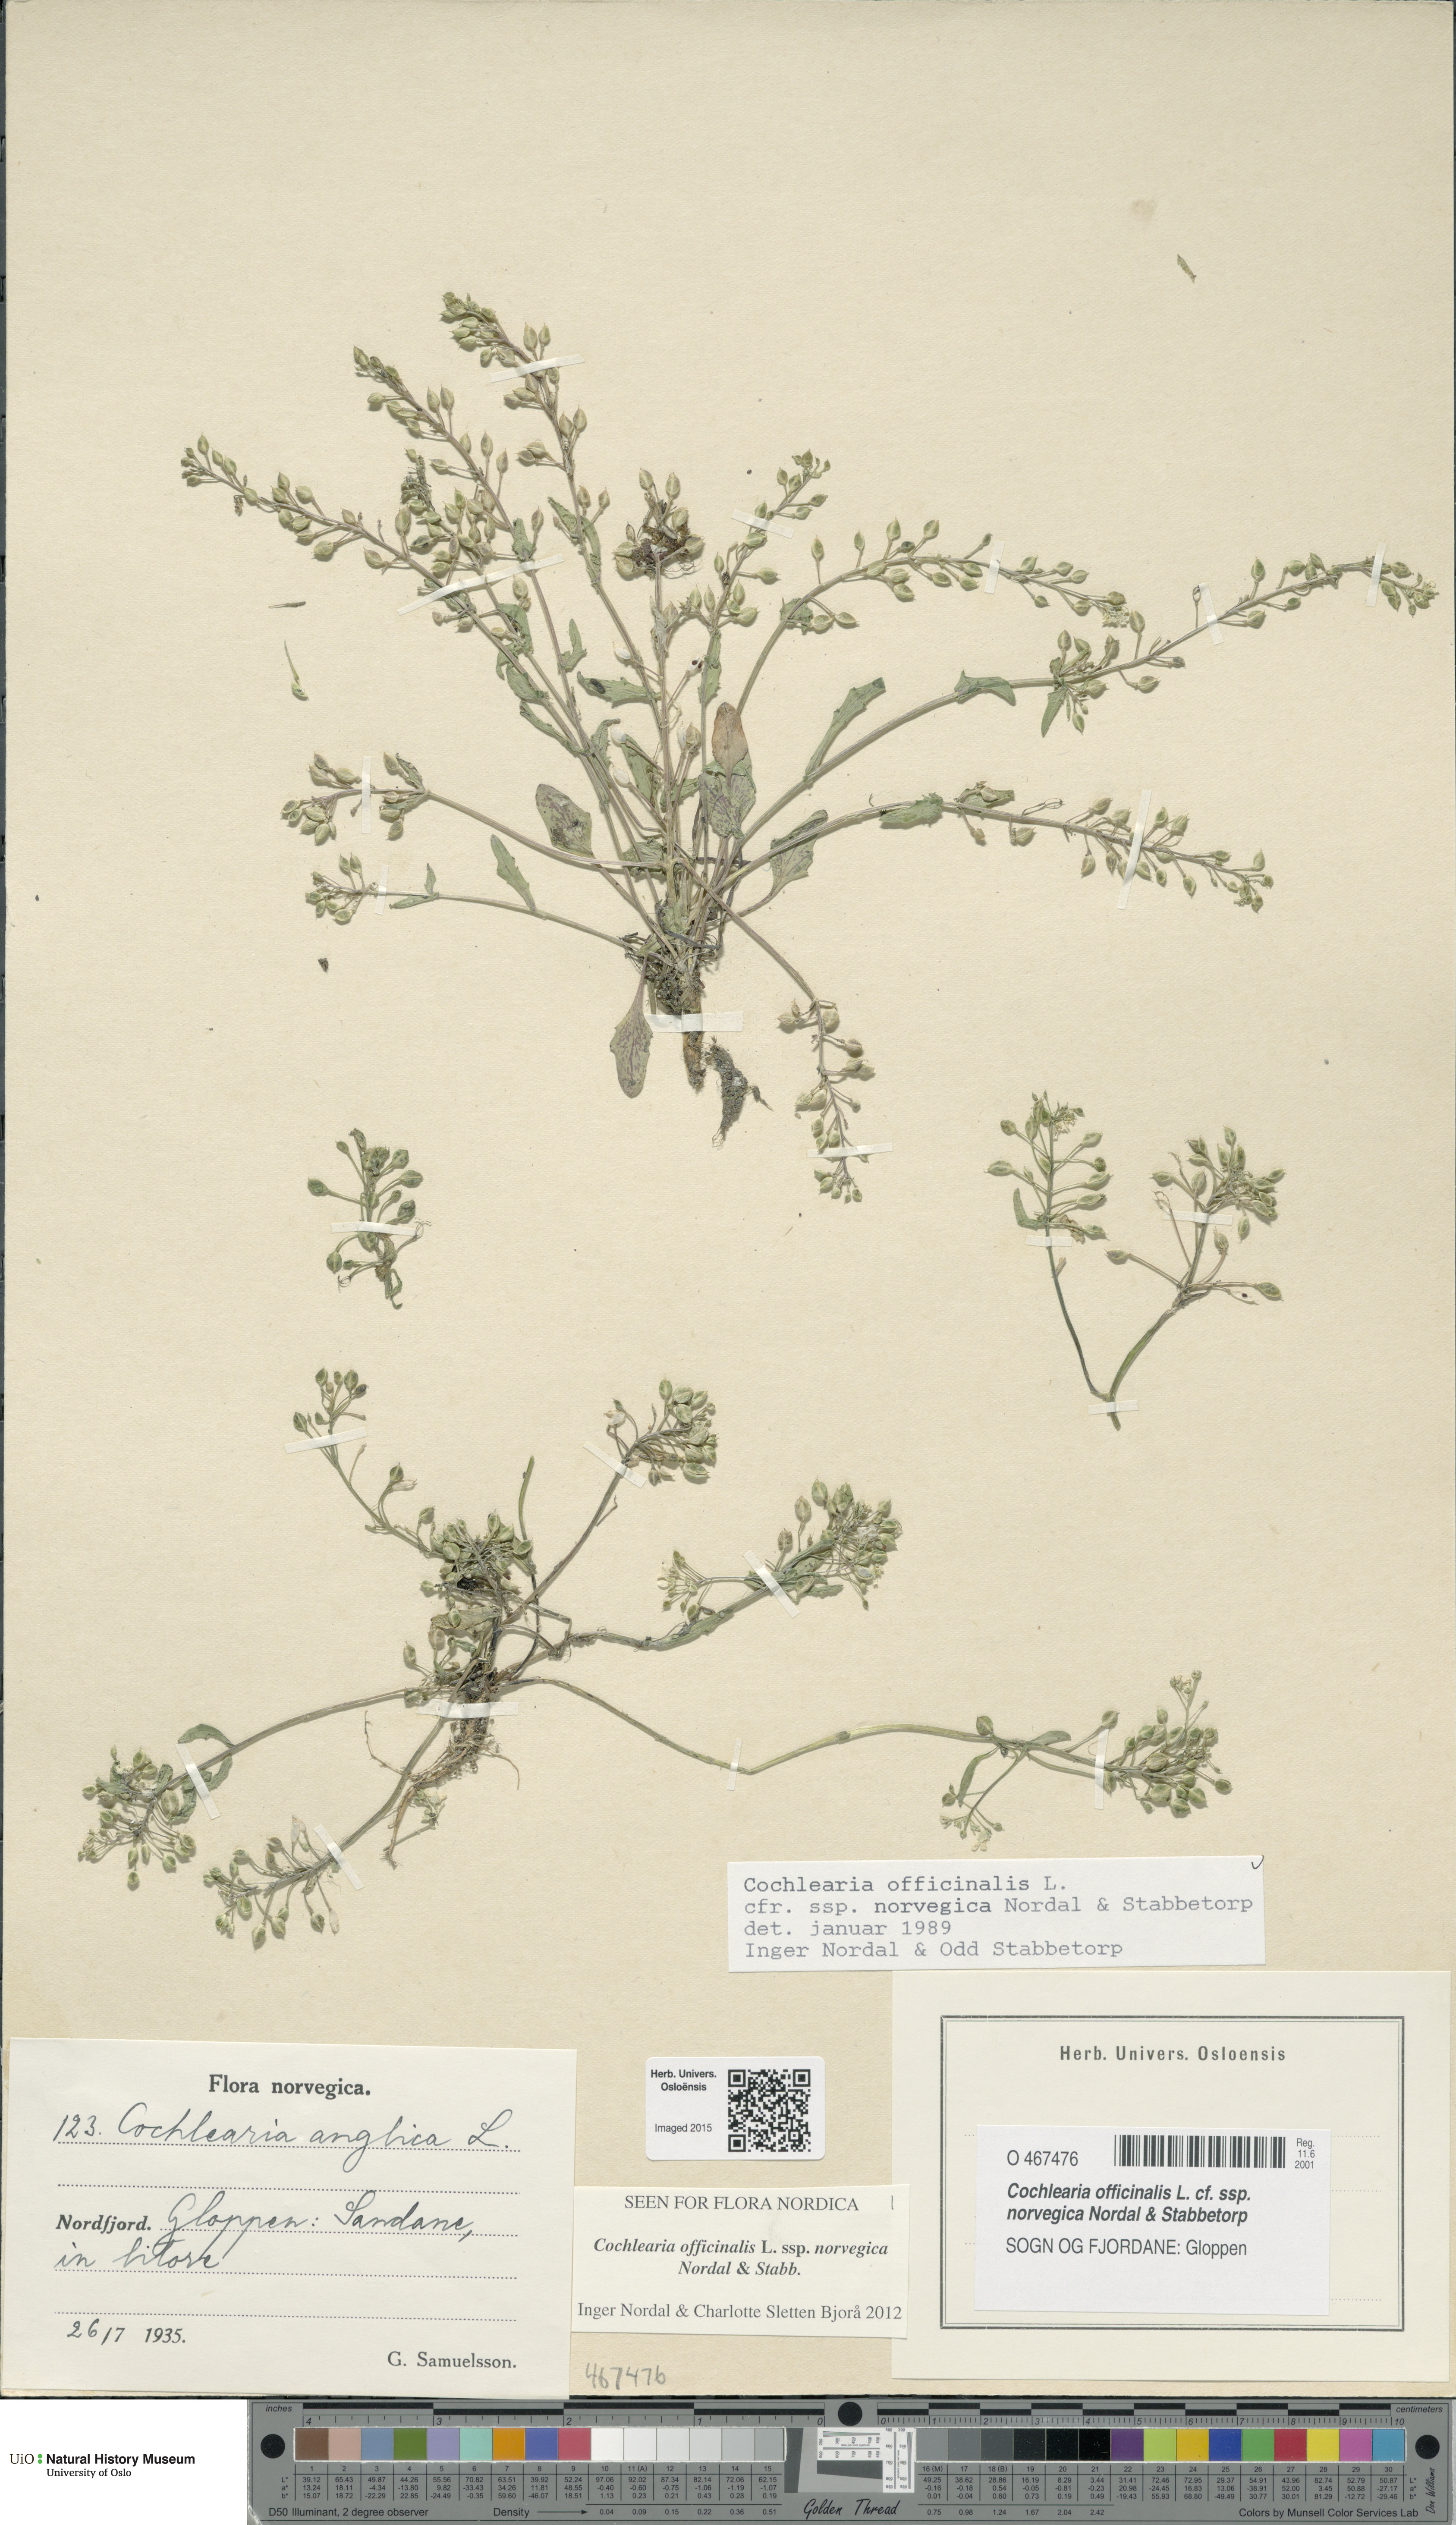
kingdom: Plantae
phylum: Tracheophyta
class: Magnoliopsida
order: Brassicales
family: Brassicaceae
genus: Cochlearia
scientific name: Cochlearia officinalis
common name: Scurvy-grass
